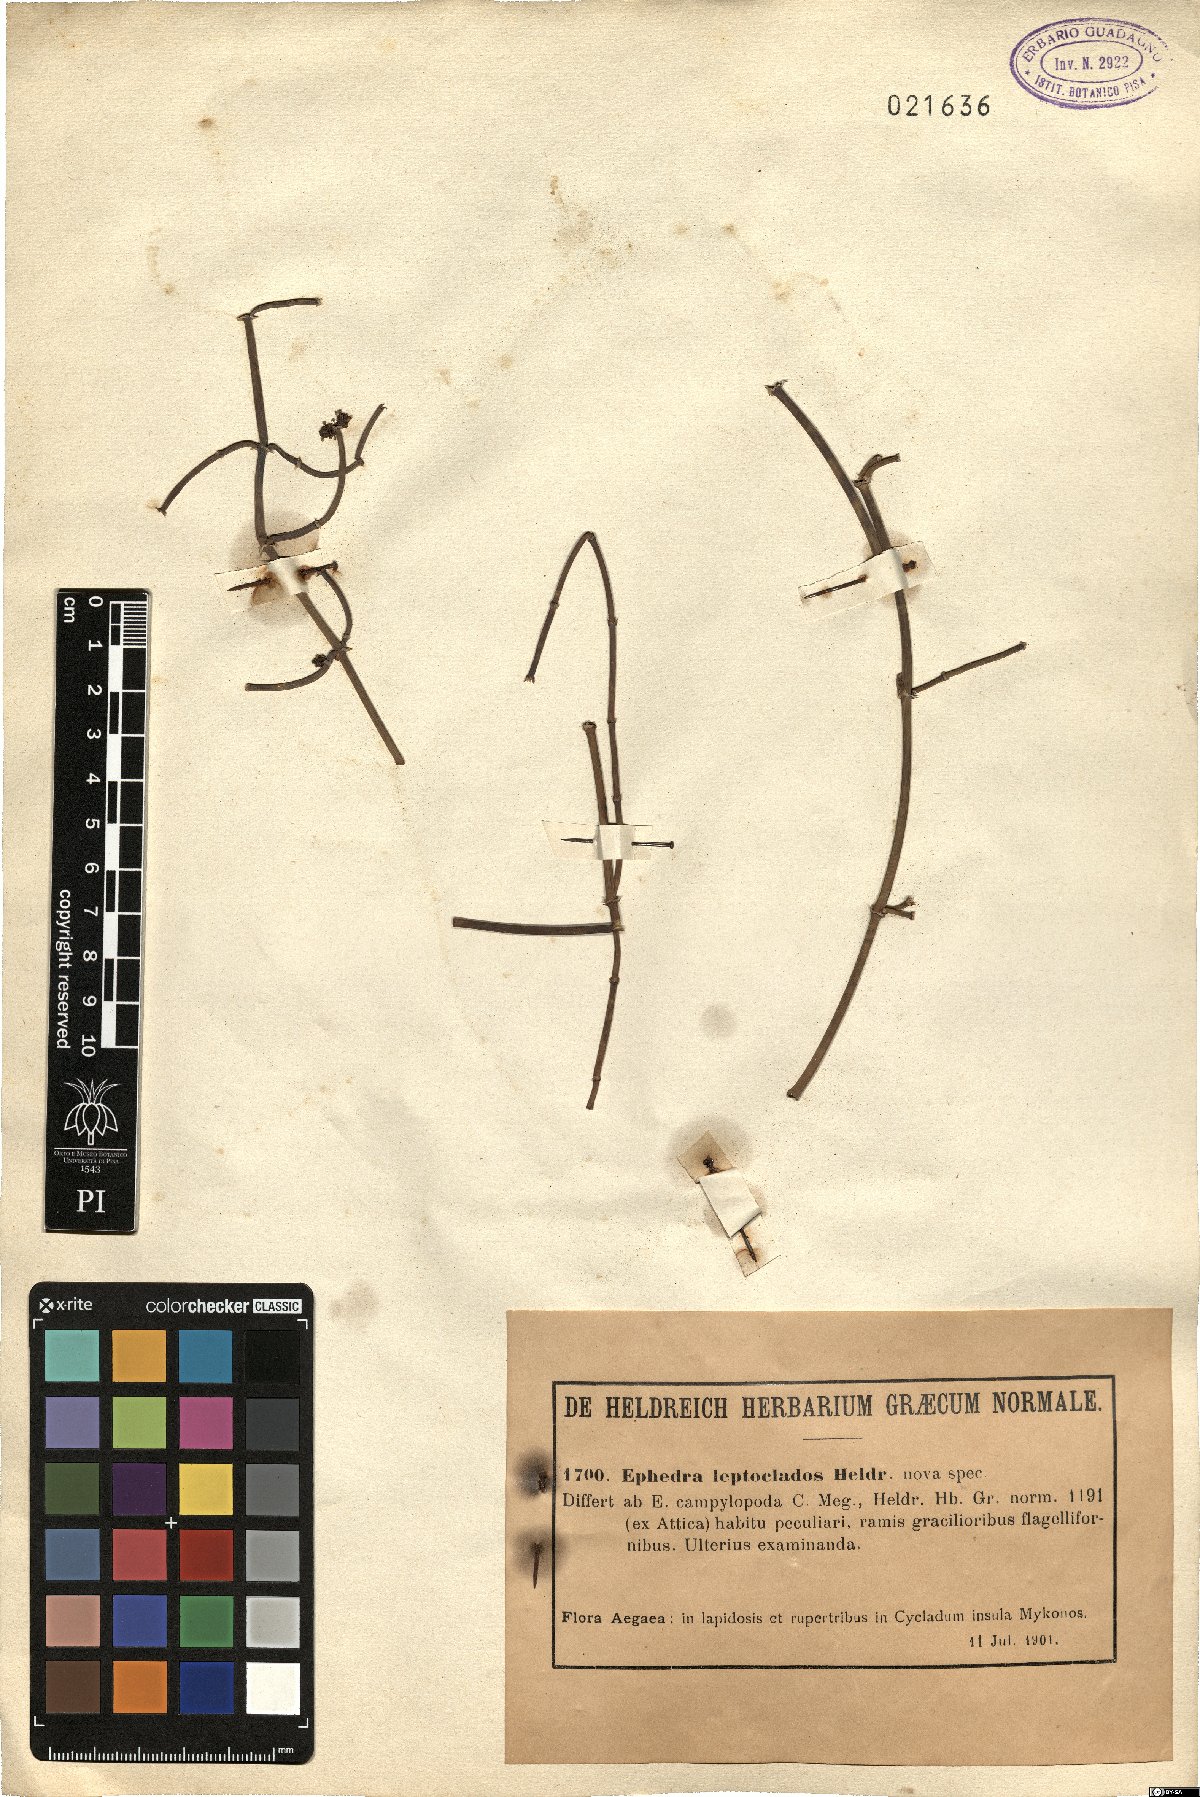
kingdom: Plantae
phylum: Tracheophyta
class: Gnetopsida
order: Ephedrales
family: Ephedraceae
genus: Ephedra
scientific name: Ephedra
